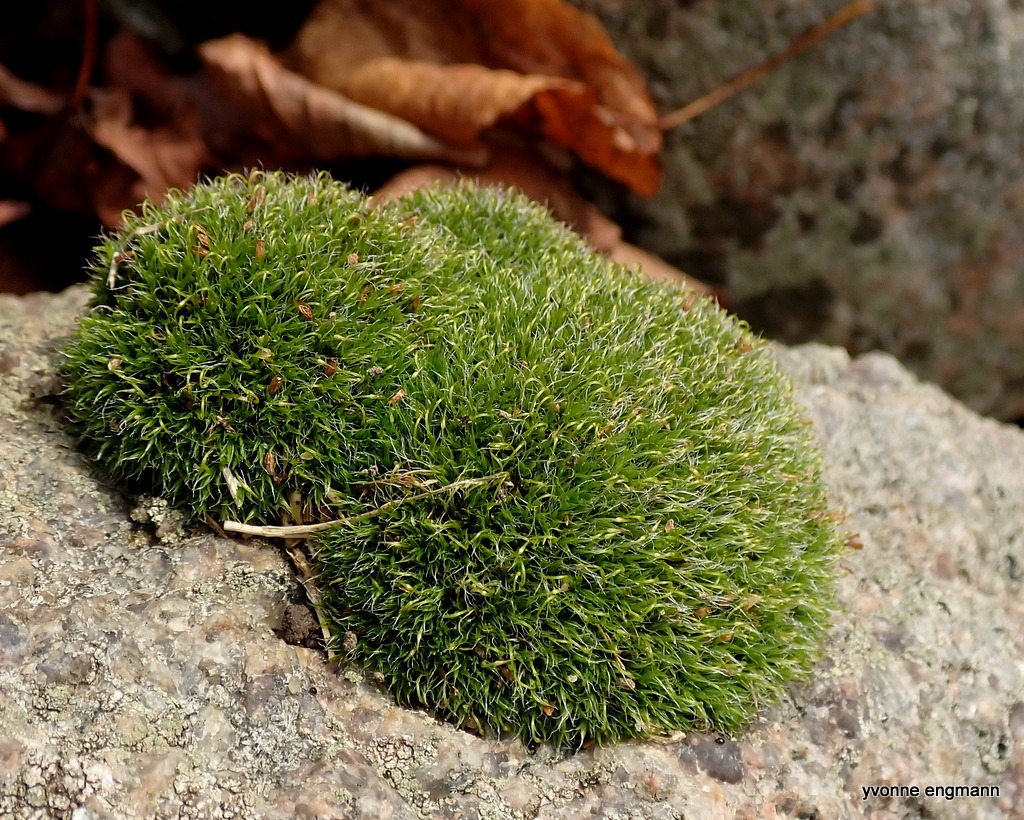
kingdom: Plantae
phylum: Bryophyta
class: Bryopsida
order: Grimmiales
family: Grimmiaceae
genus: Grimmia
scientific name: Grimmia pulvinata
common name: Pude-gråmos
